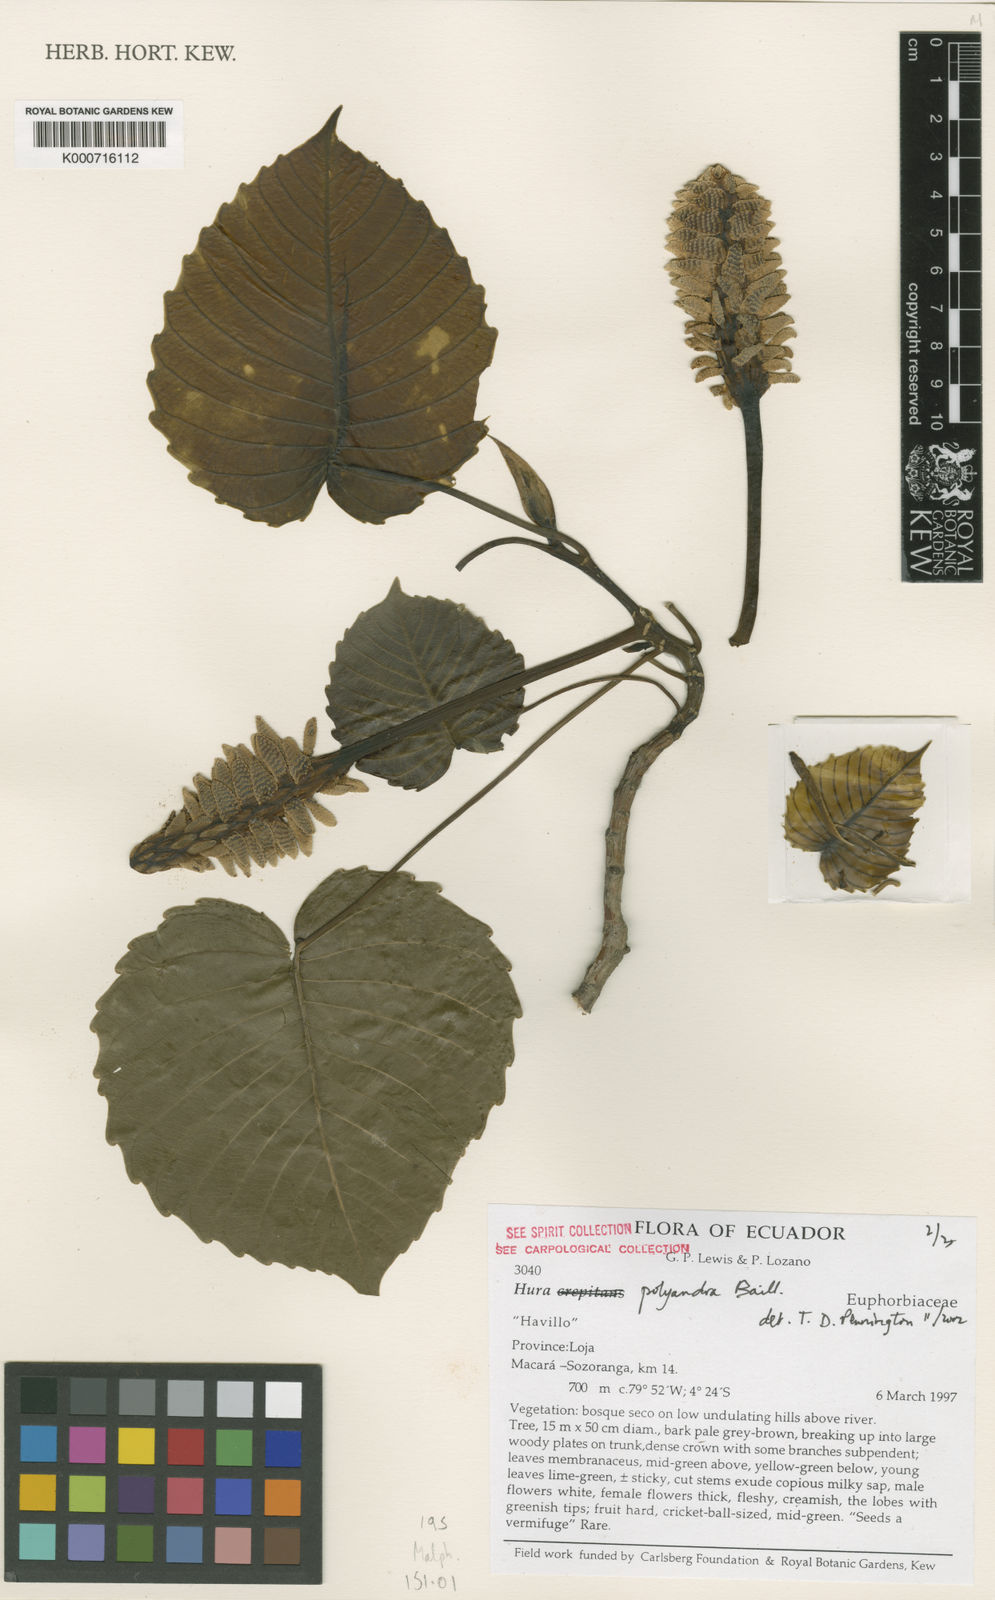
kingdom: Plantae
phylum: Tracheophyta
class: Magnoliopsida
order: Malpighiales
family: Euphorbiaceae
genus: Hura
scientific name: Hura polyandra
